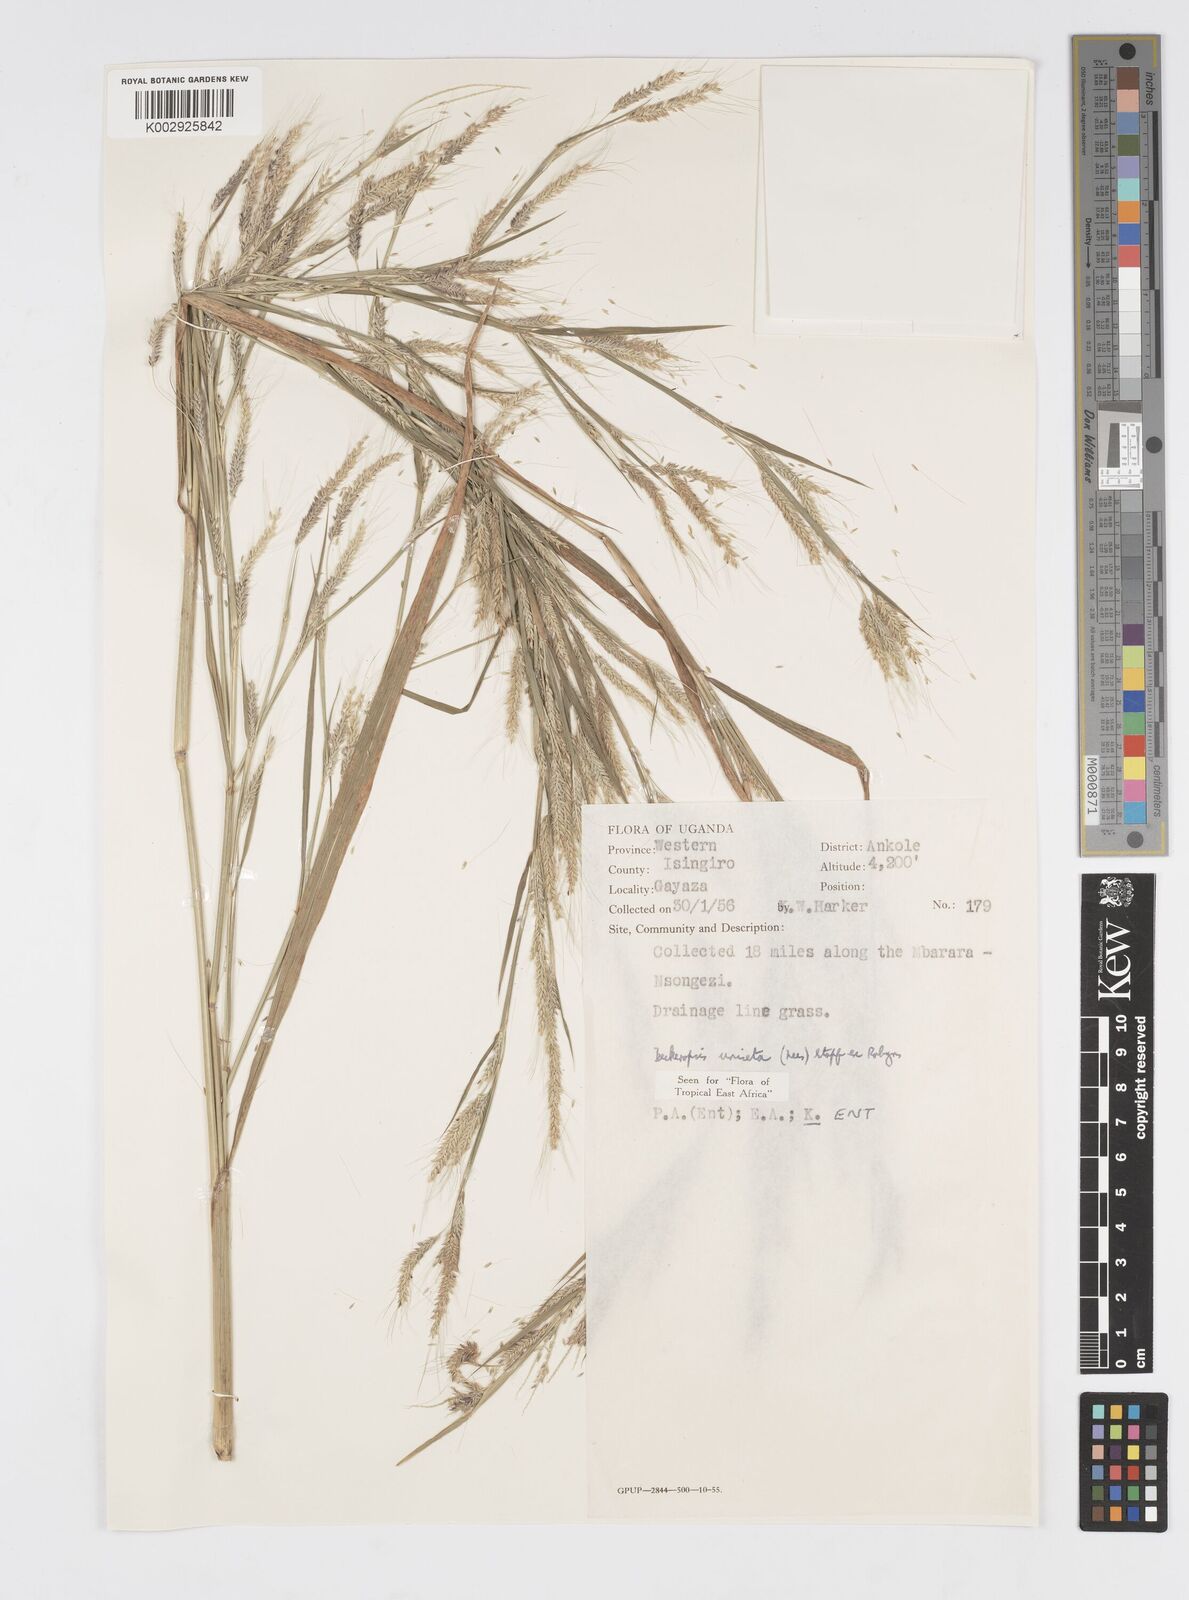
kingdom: Plantae
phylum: Tracheophyta
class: Liliopsida
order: Poales
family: Poaceae
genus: Cenchrus
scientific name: Cenchrus unisetus
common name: Natal grass
